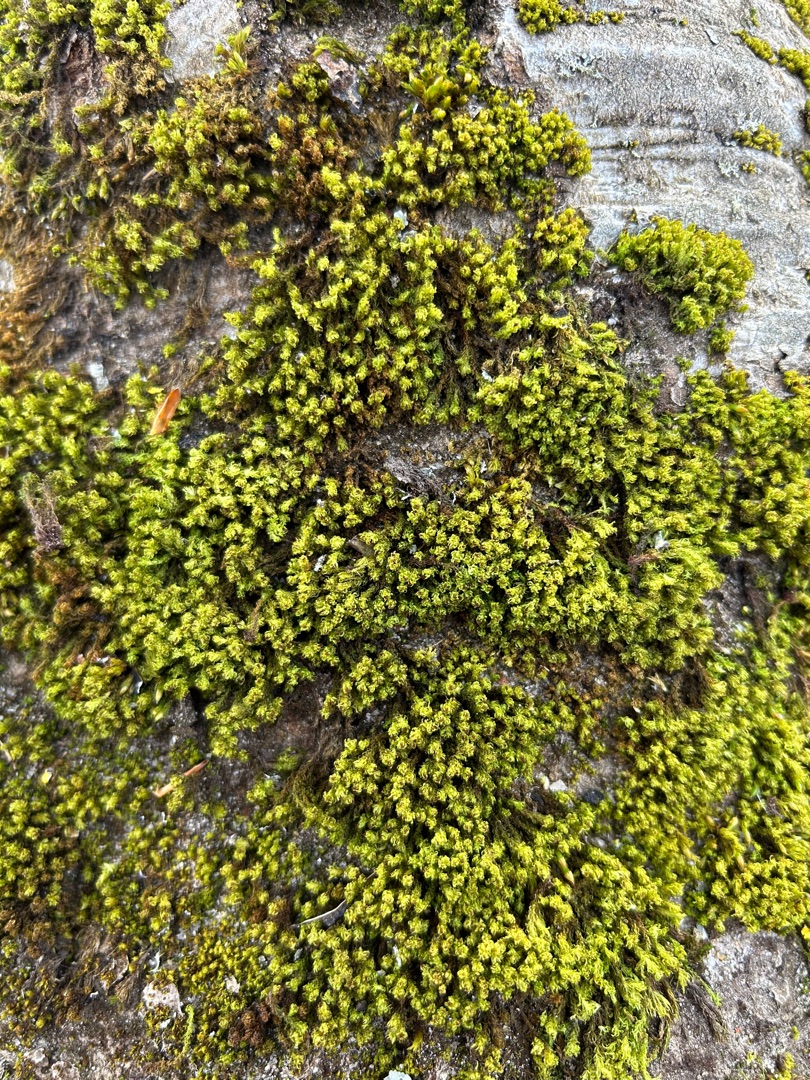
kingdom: Plantae
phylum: Bryophyta
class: Bryopsida
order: Orthotrichales
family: Orthotrichaceae
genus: Plenogemma
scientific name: Plenogemma phyllantha
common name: Stor låddenhætte
